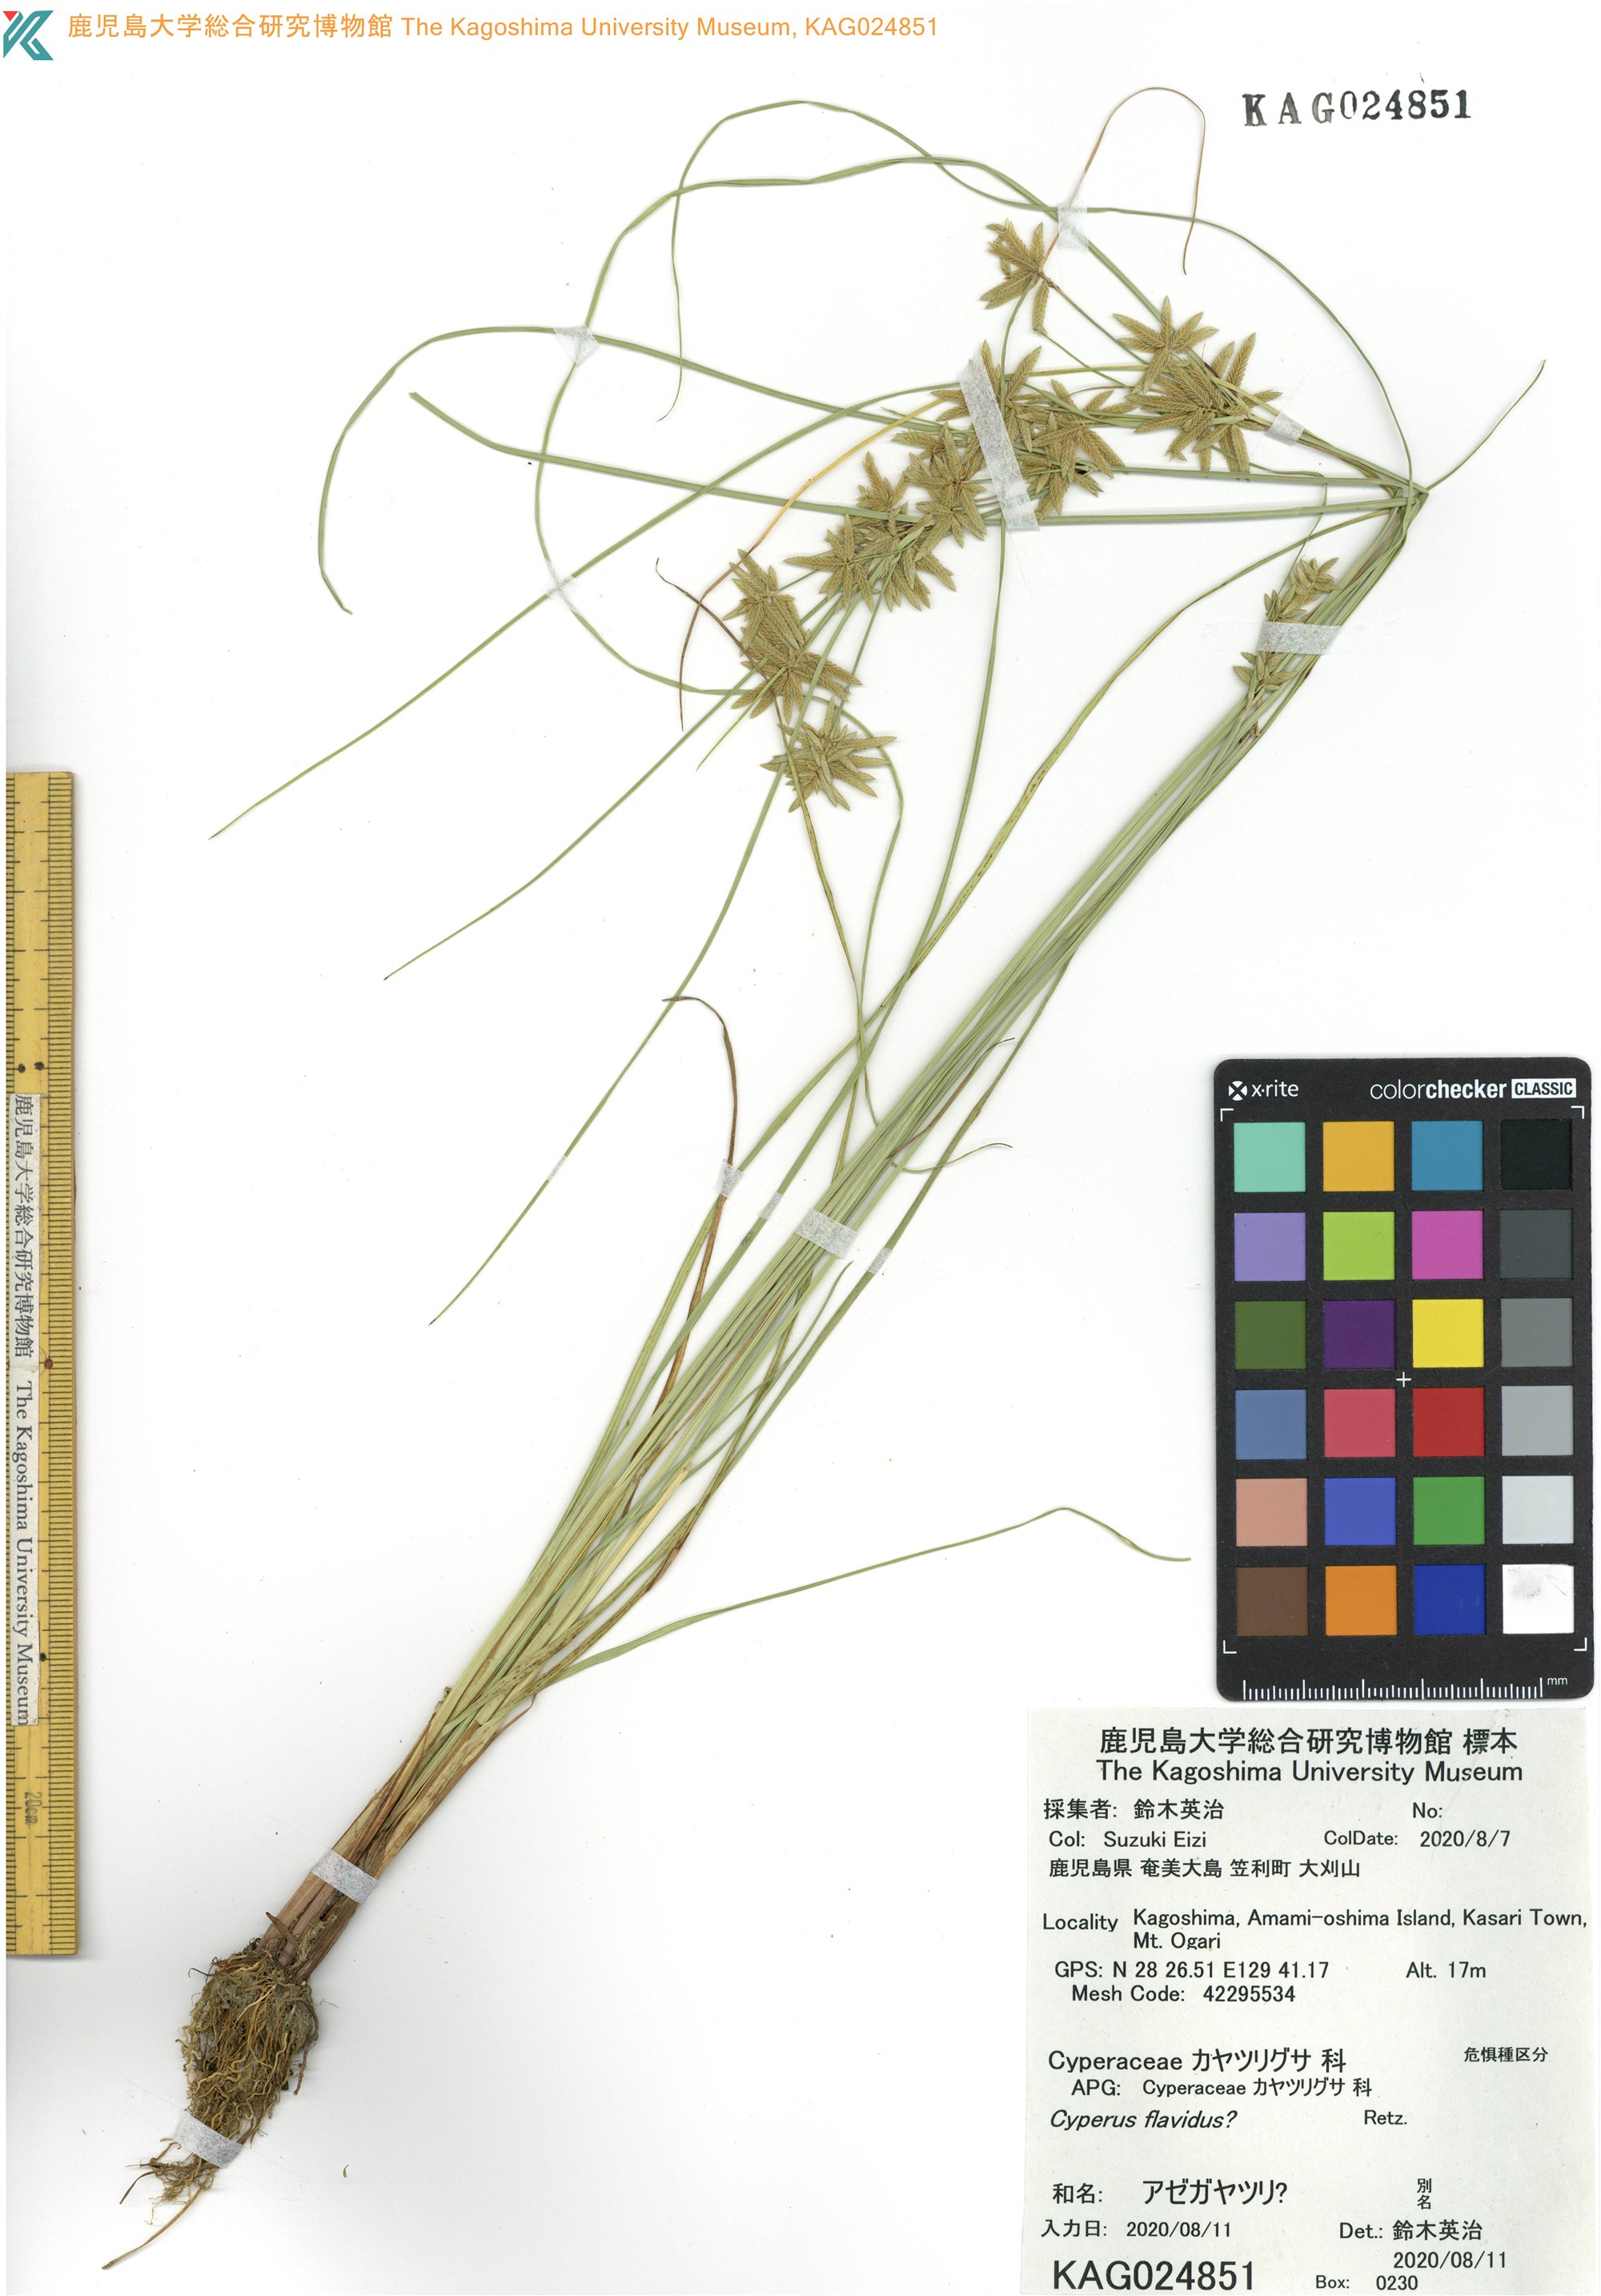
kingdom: Plantae
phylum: Tracheophyta
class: Liliopsida
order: Poales
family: Cyperaceae
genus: Cyperus
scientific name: Cyperus flavidus
